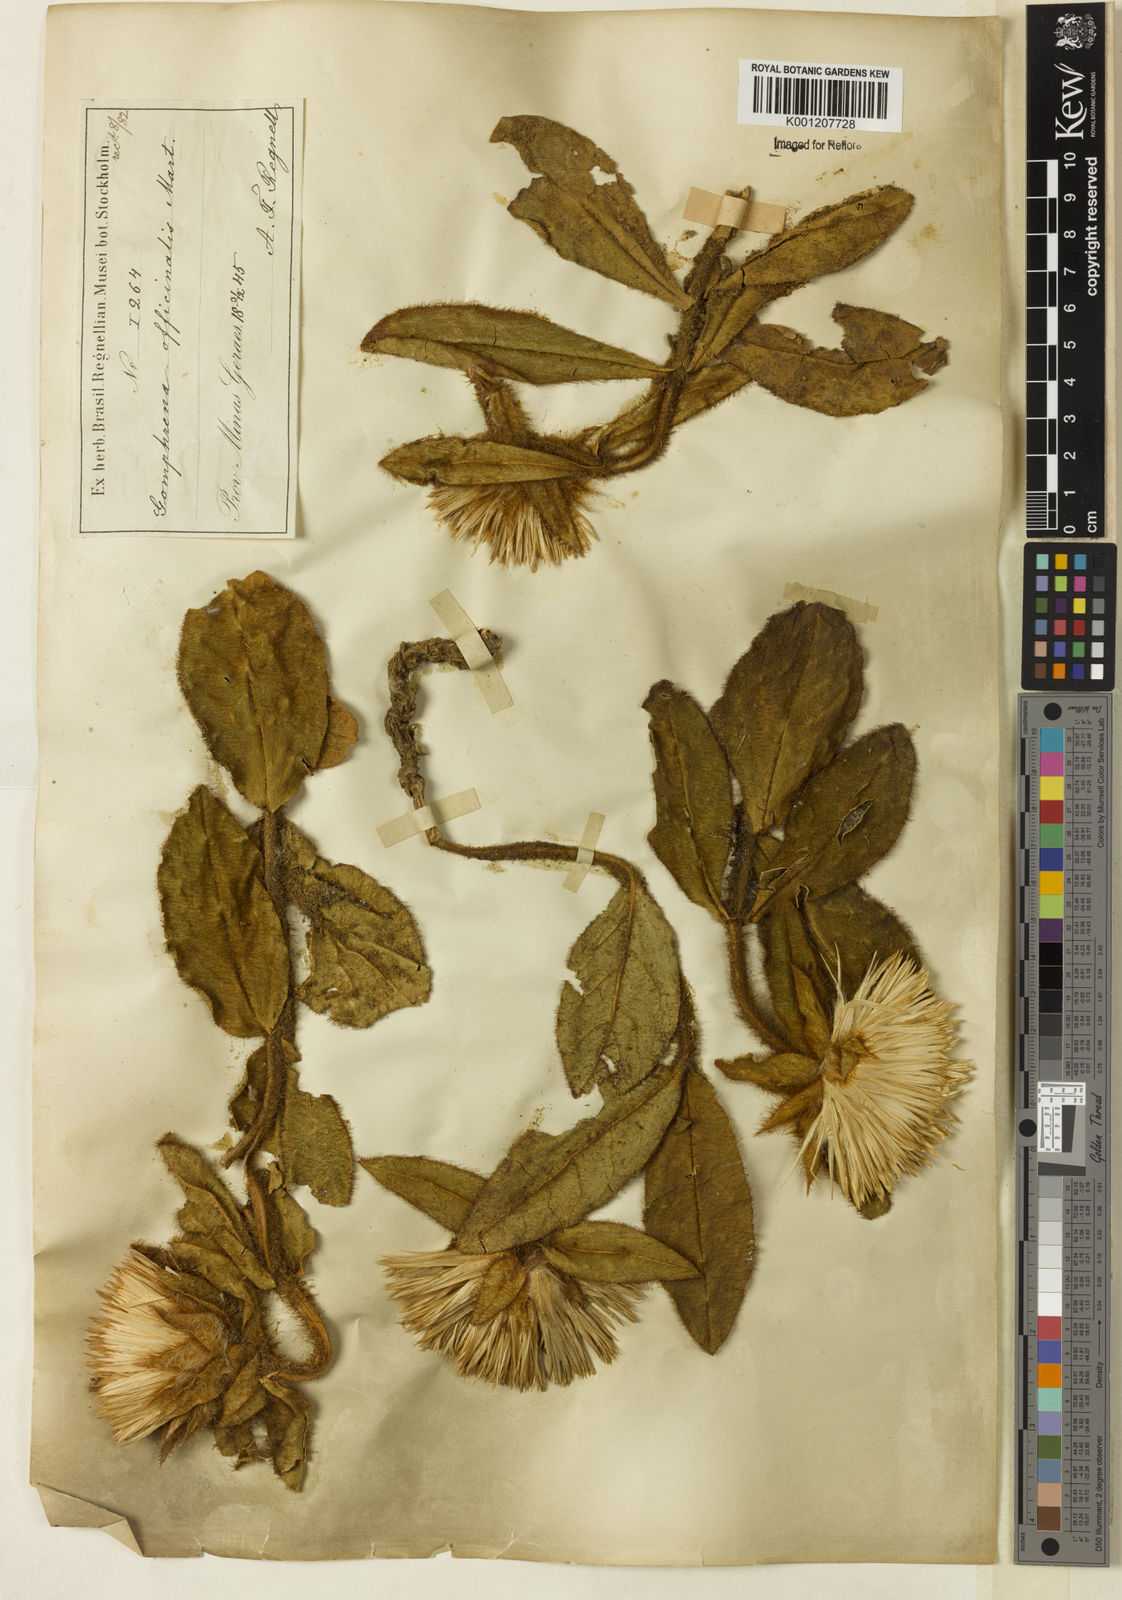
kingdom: Plantae
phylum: Tracheophyta
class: Magnoliopsida
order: Caryophyllales
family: Amaranthaceae
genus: Gomphrena
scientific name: Gomphrena arborescens
